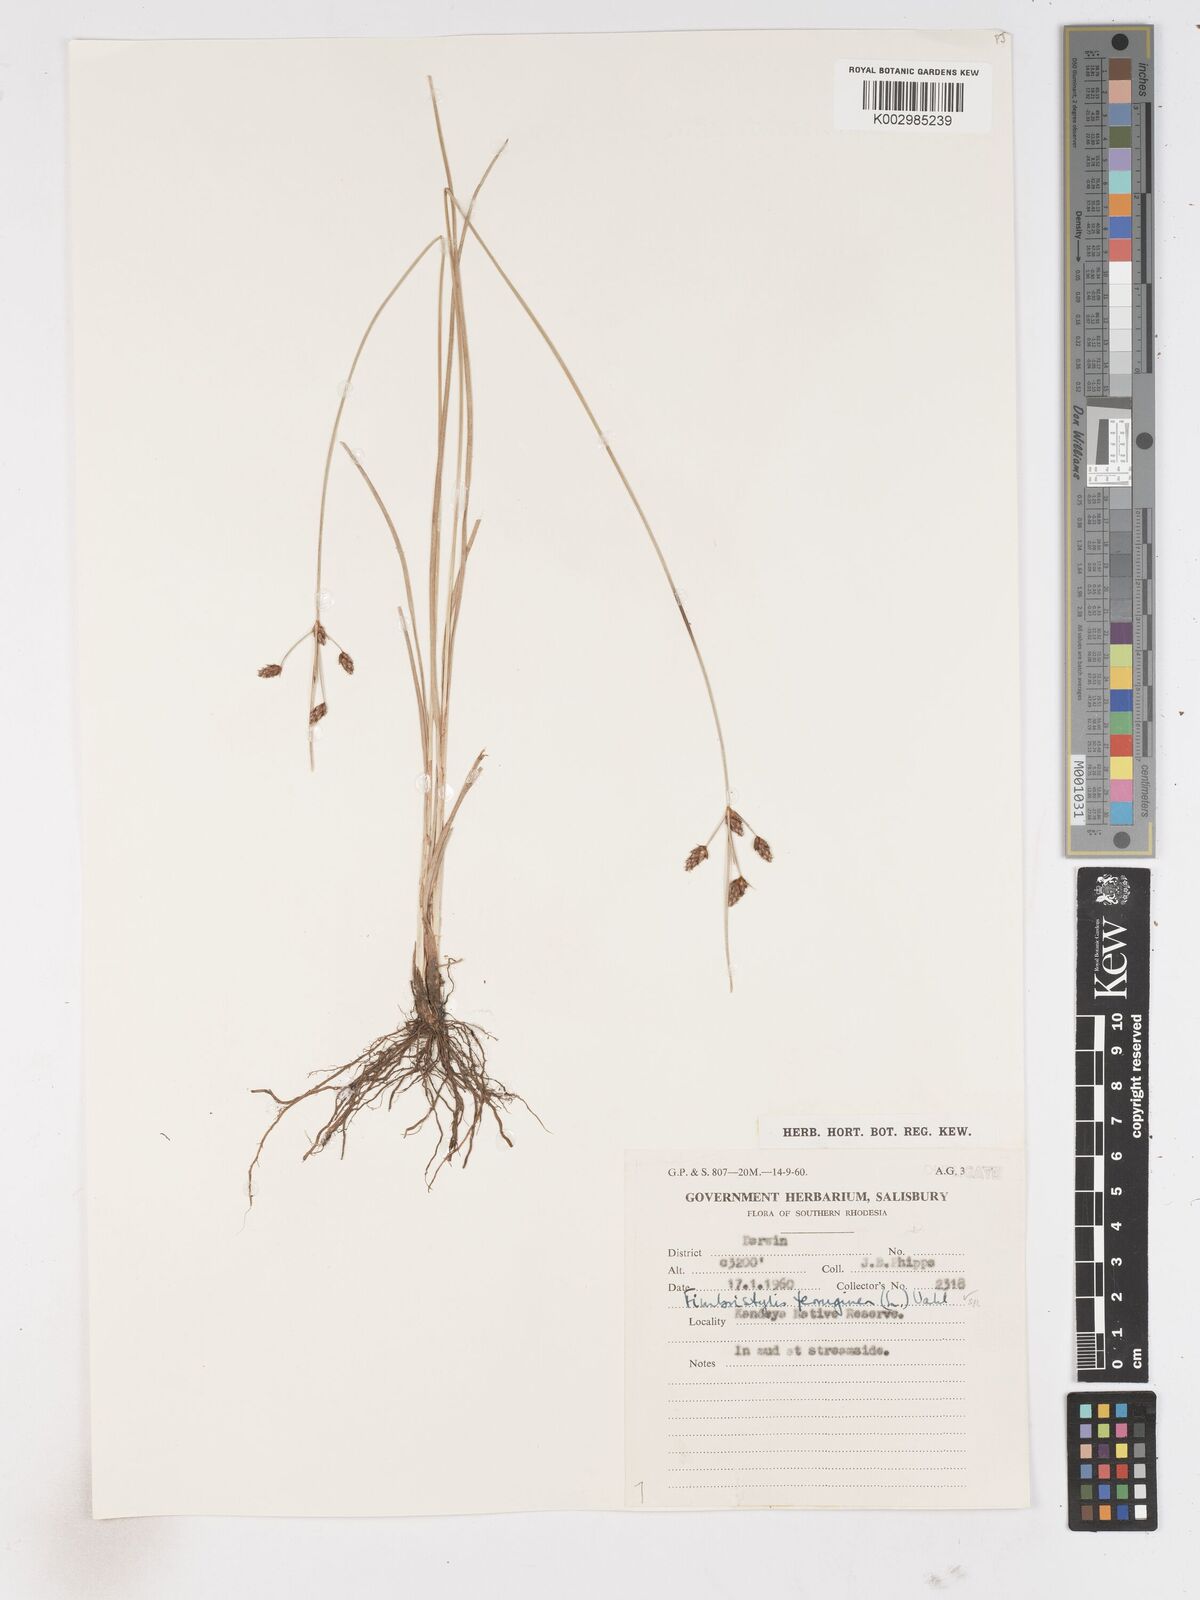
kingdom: Plantae
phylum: Tracheophyta
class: Liliopsida
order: Poales
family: Cyperaceae
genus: Fimbristylis
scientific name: Fimbristylis
